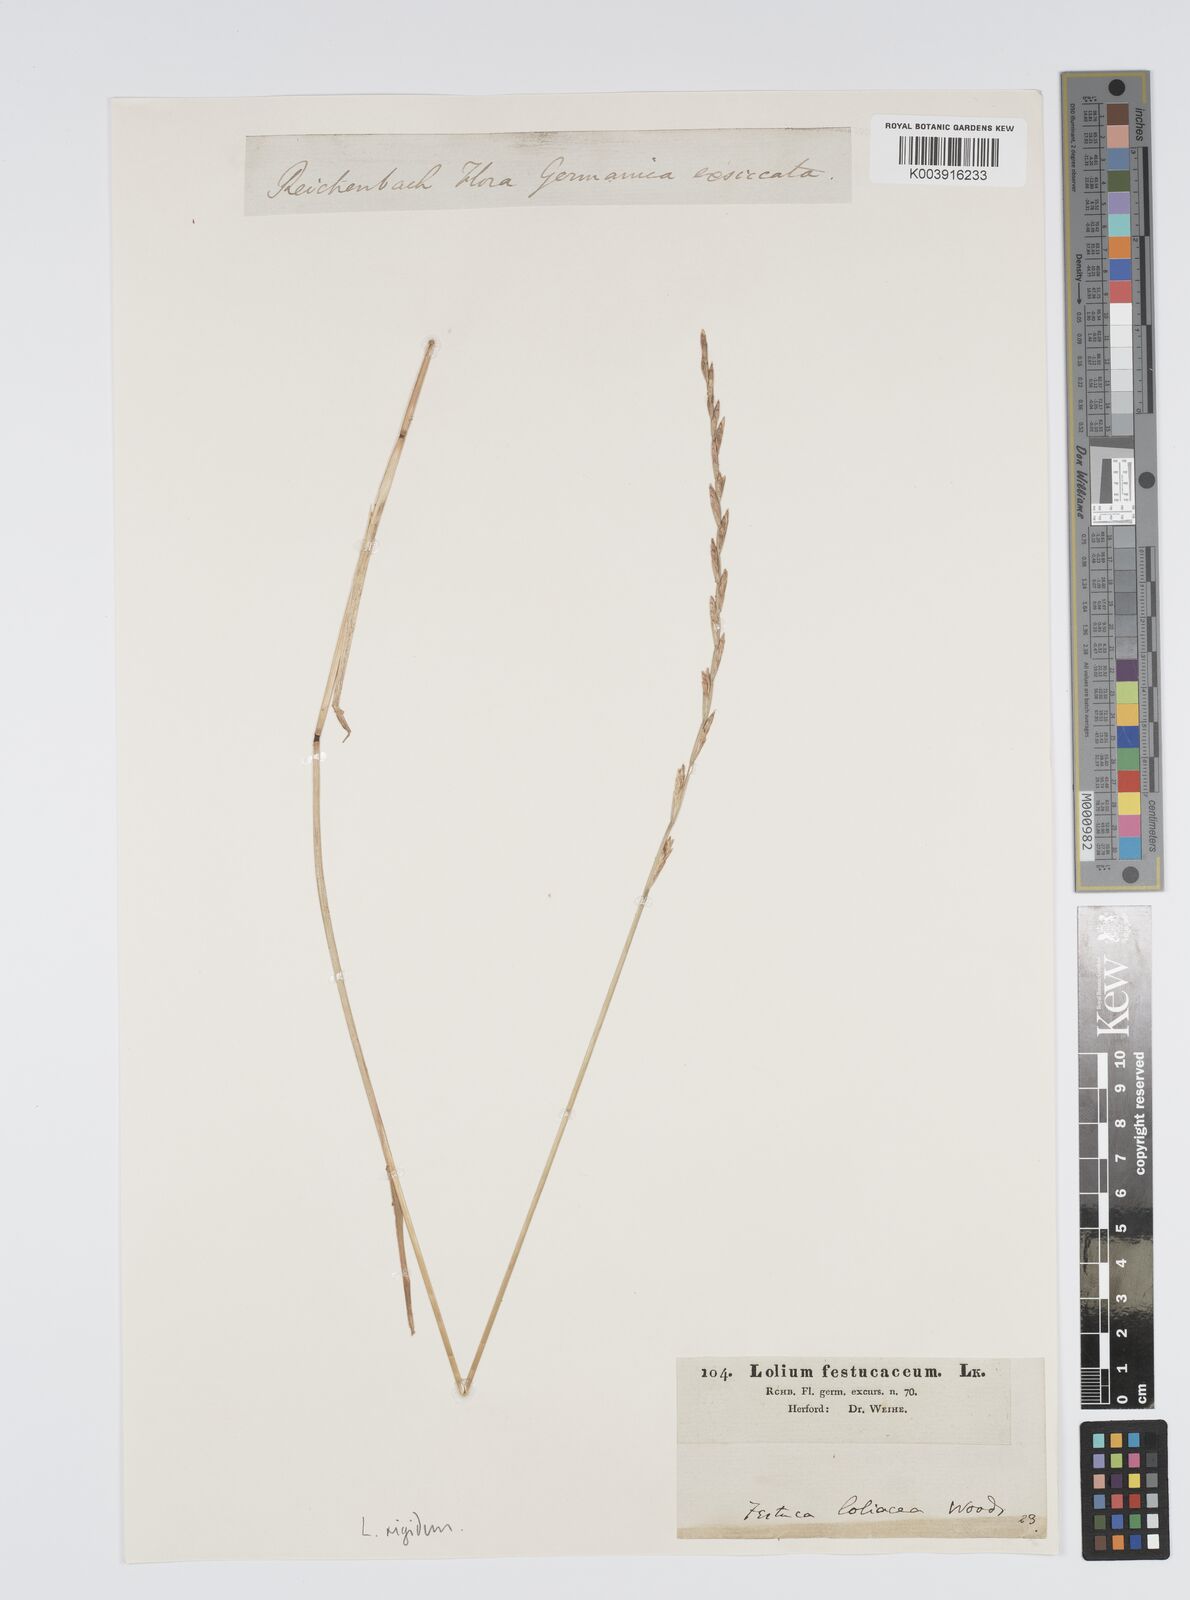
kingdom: Plantae
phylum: Tracheophyta
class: Liliopsida
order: Poales
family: Poaceae
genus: Lolium
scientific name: Lolium rigidum
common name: Wimmera ryegrass
